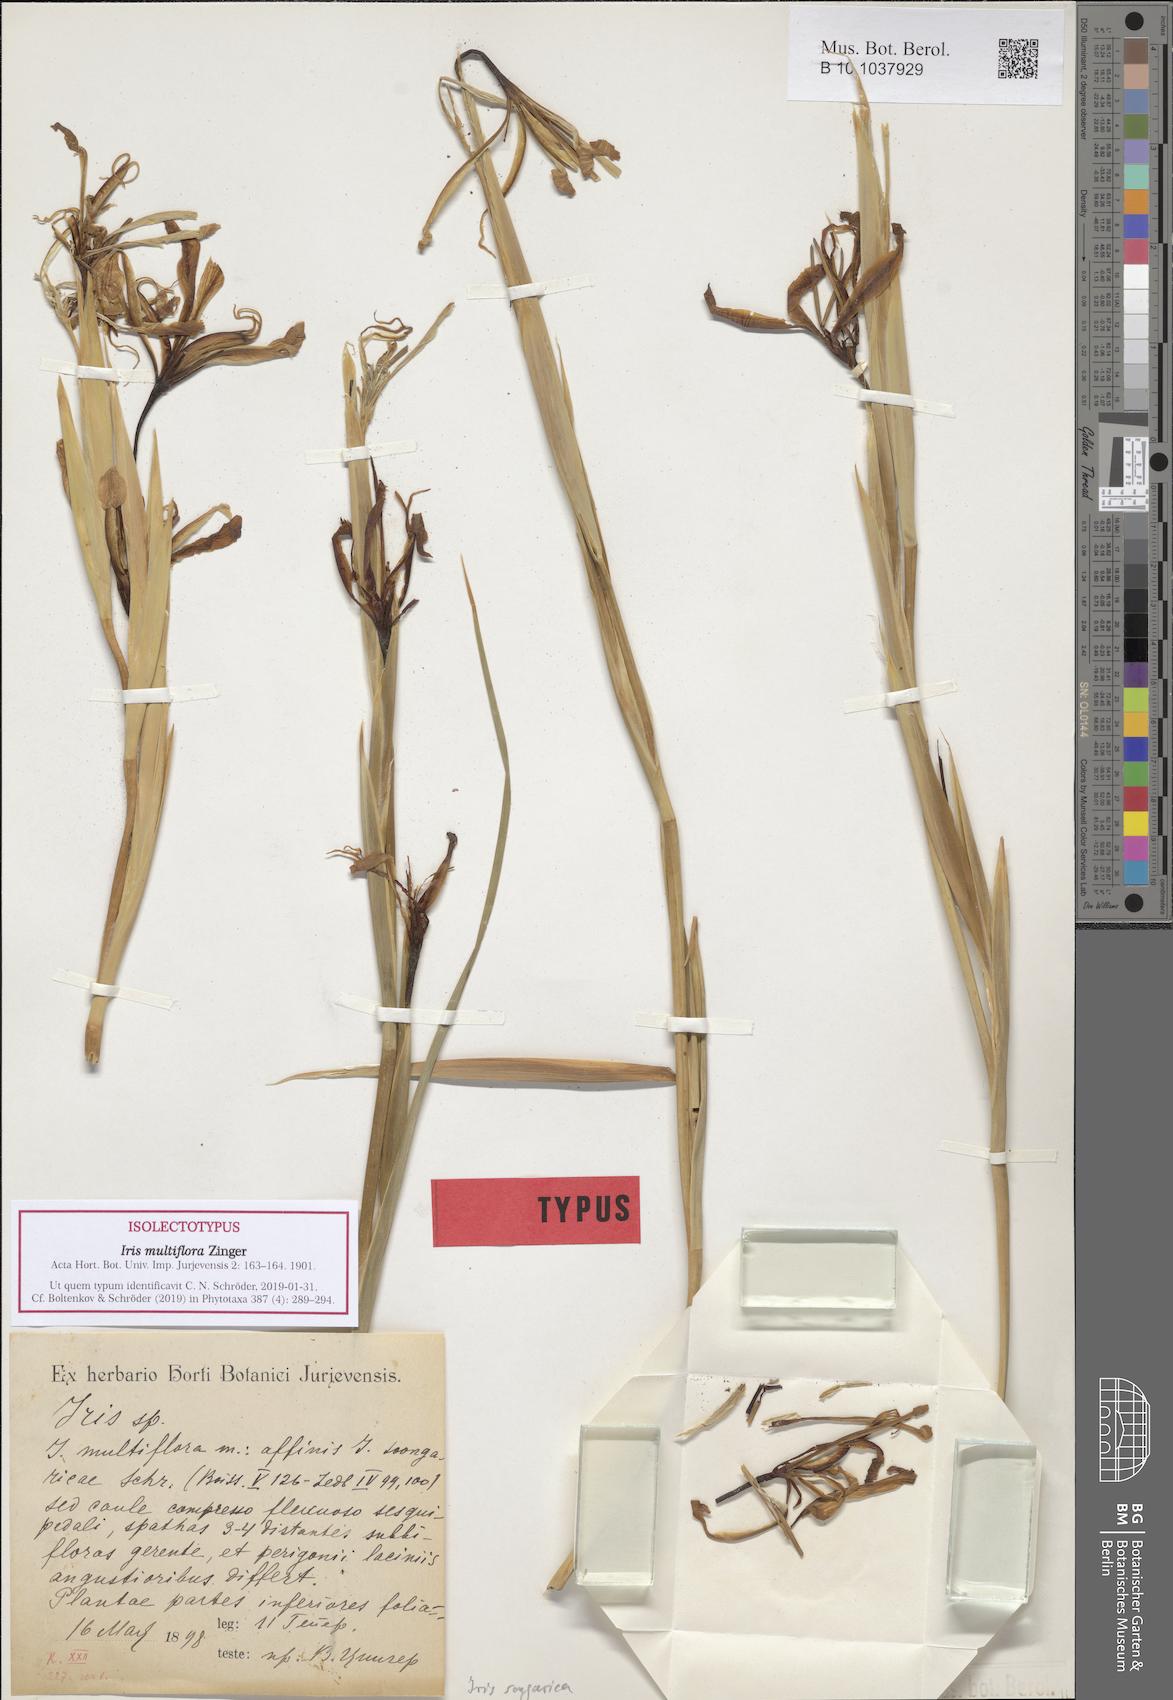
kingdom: Plantae
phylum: Tracheophyta
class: Liliopsida
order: Asparagales
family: Iridaceae
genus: Iris
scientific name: Iris songarica
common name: Songar iris
